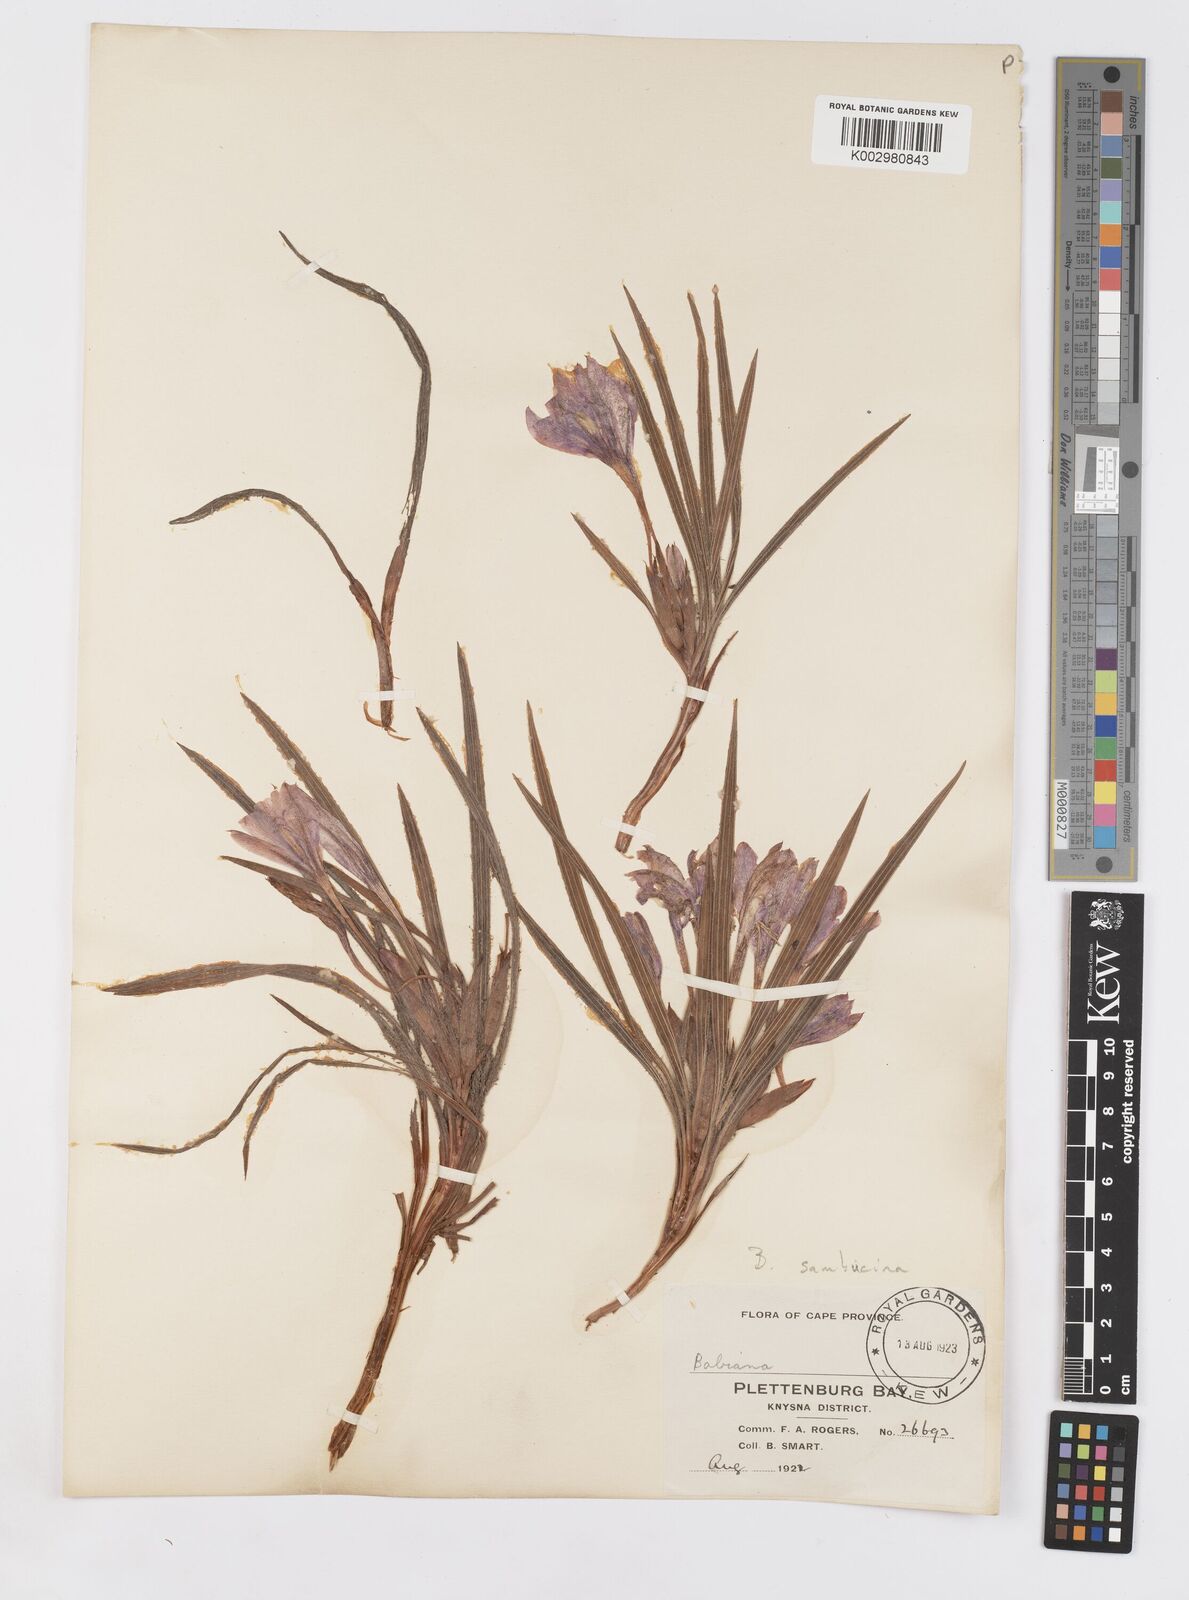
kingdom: Plantae
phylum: Tracheophyta
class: Liliopsida
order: Asparagales
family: Iridaceae
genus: Babiana
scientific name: Babiana sambucina
